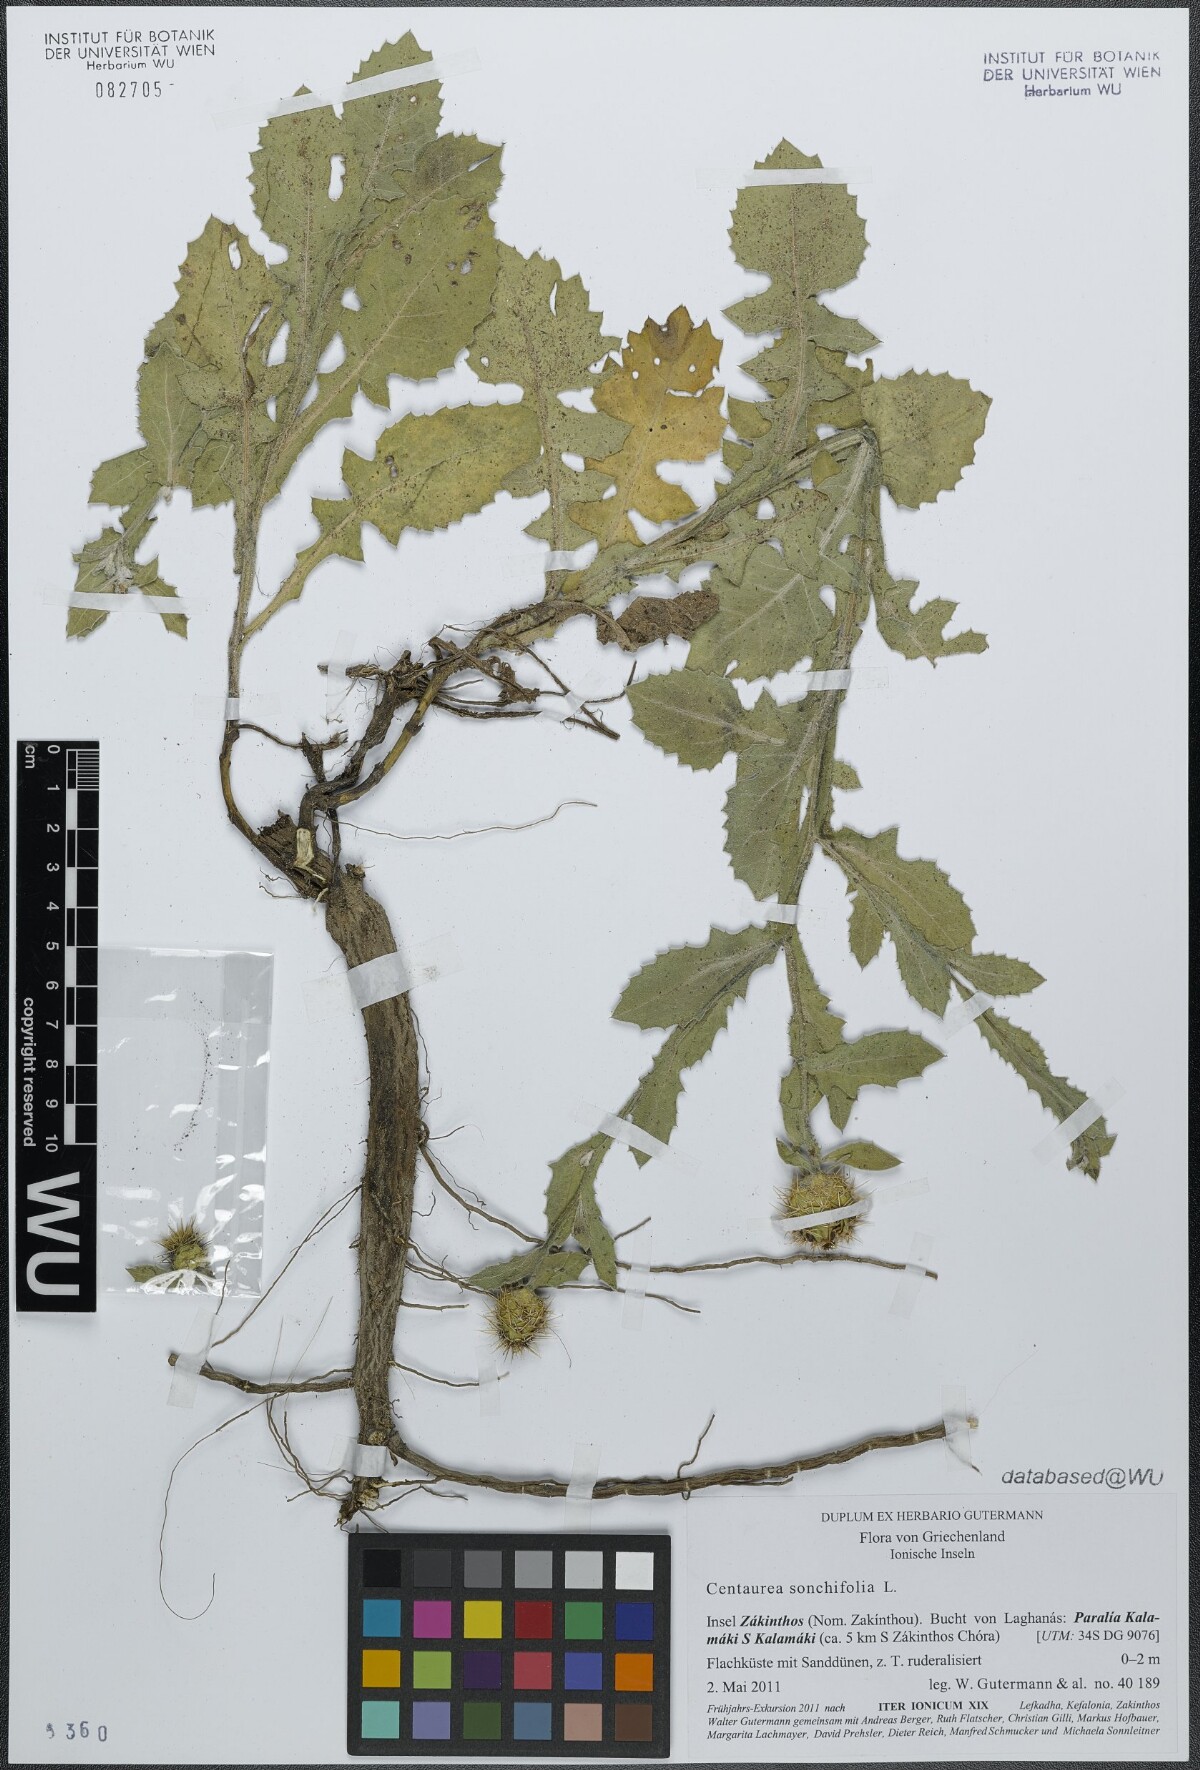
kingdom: Plantae
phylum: Tracheophyta
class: Magnoliopsida
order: Asterales
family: Asteraceae
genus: Centaurea
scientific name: Centaurea seridis
